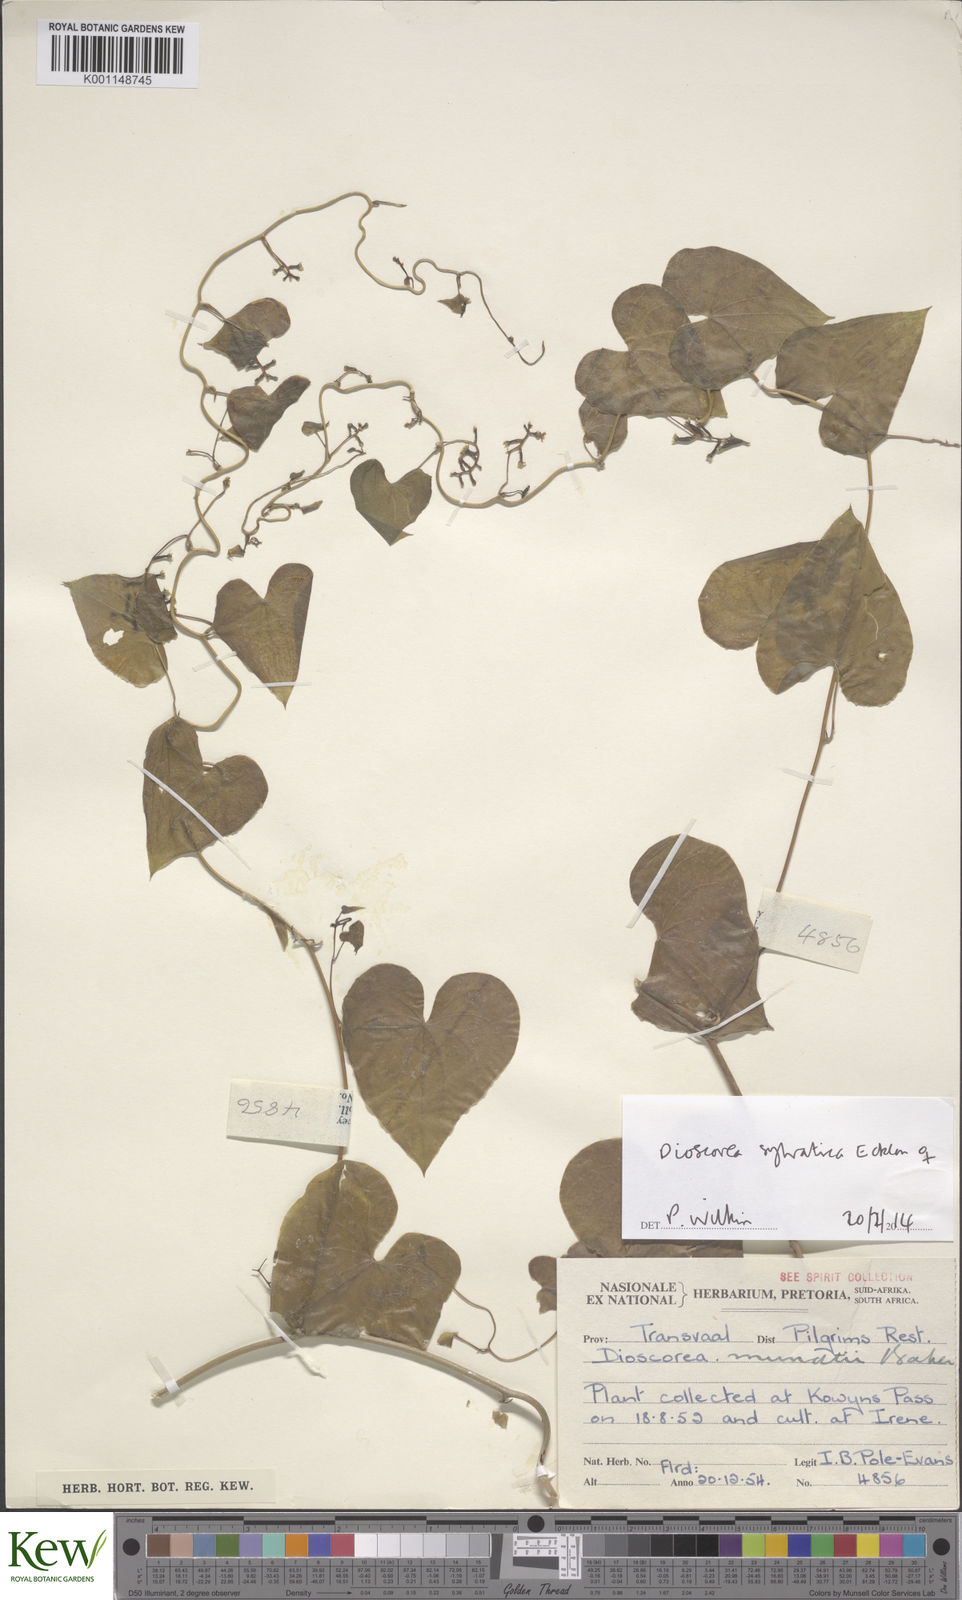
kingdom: Plantae
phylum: Tracheophyta
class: Liliopsida
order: Dioscoreales
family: Dioscoreaceae
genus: Dioscorea
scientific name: Dioscorea sylvatica
